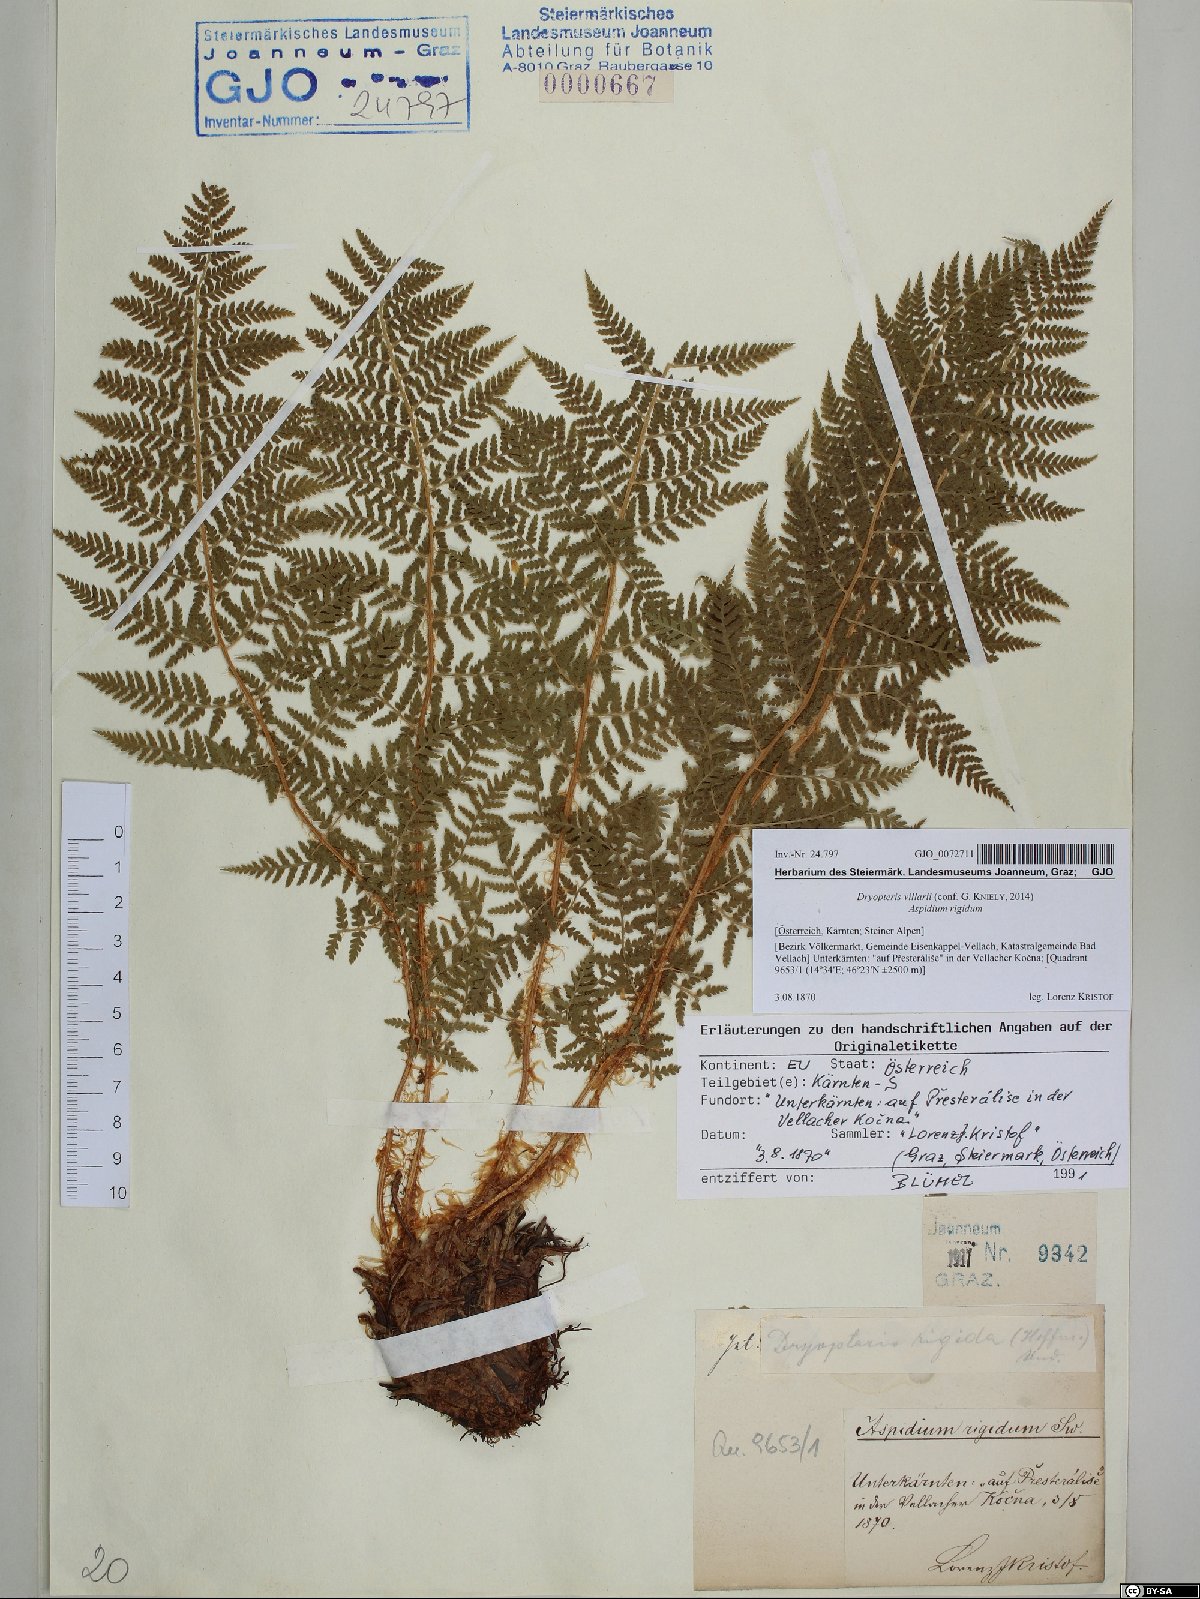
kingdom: Plantae
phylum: Tracheophyta
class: Polypodiopsida
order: Polypodiales
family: Dryopteridaceae
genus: Dryopteris
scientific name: Dryopteris villarii
